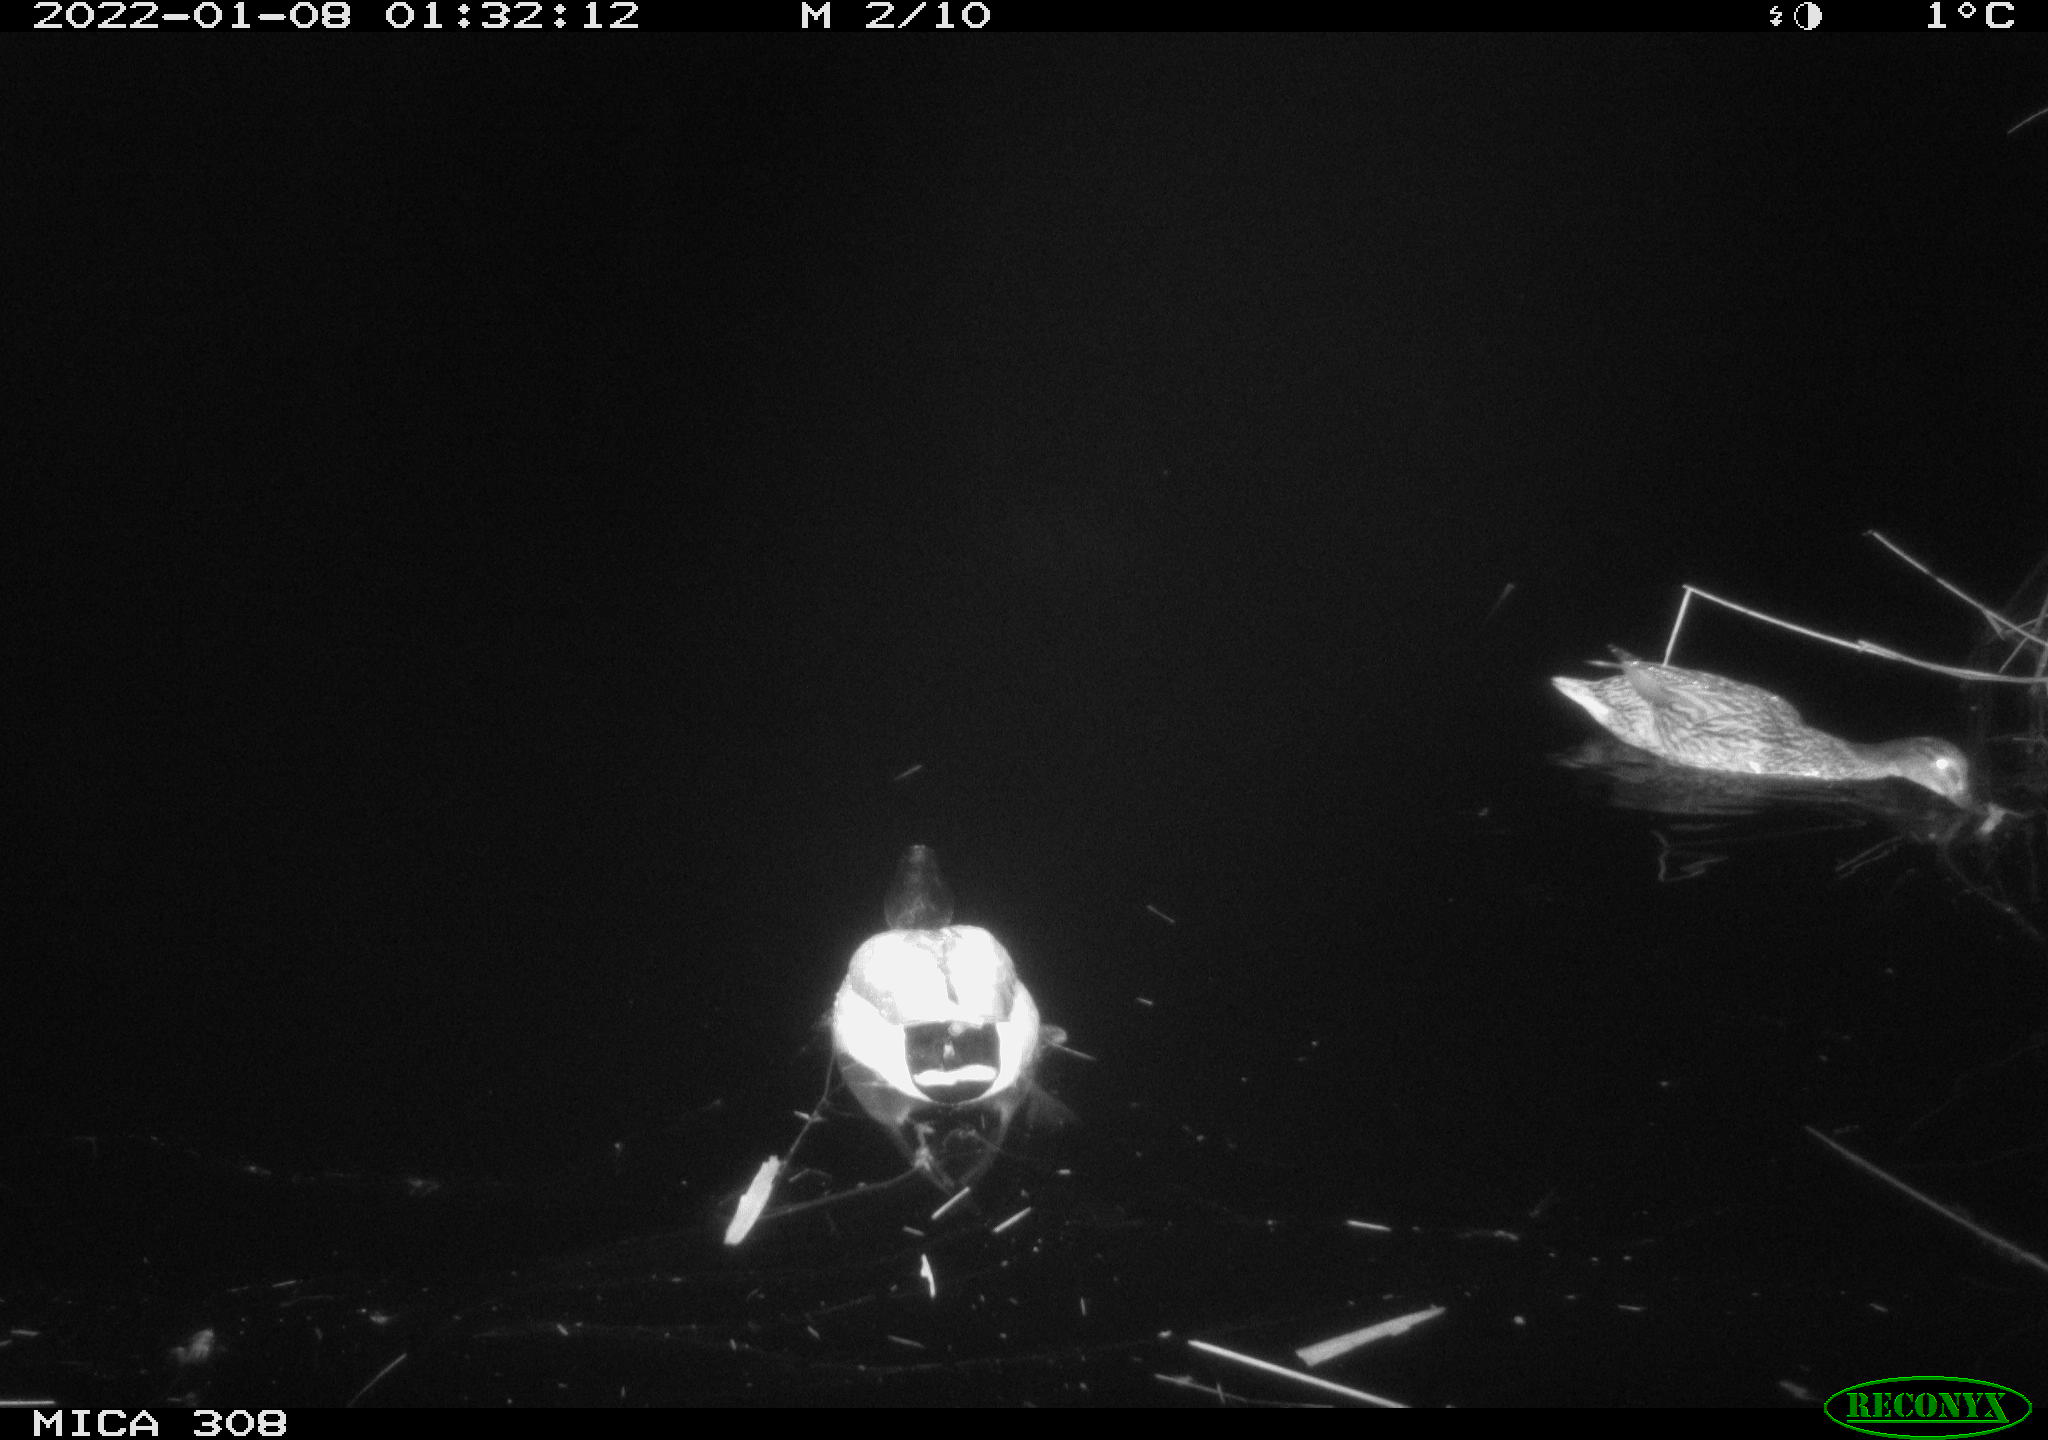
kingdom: Animalia
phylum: Chordata
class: Aves
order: Anseriformes
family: Anatidae
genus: Anas
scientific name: Anas
